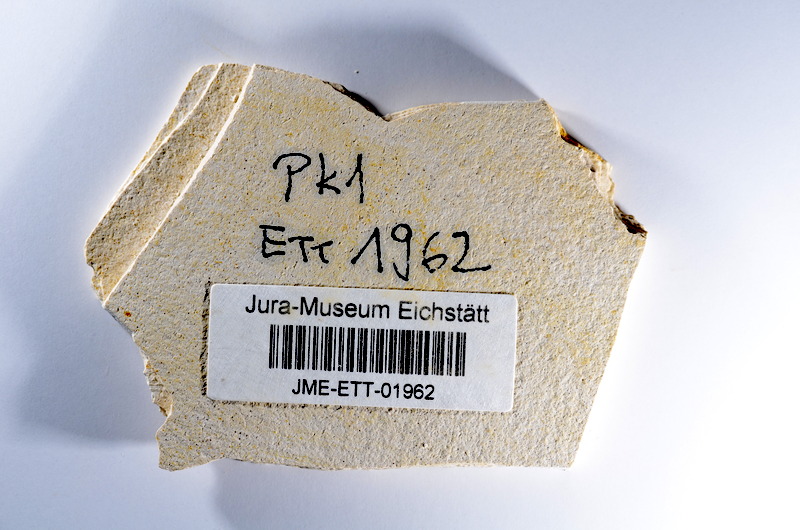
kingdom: Animalia
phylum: Chordata
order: Salmoniformes
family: Orthogonikleithridae
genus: Orthogonikleithrus
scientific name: Orthogonikleithrus hoelli
